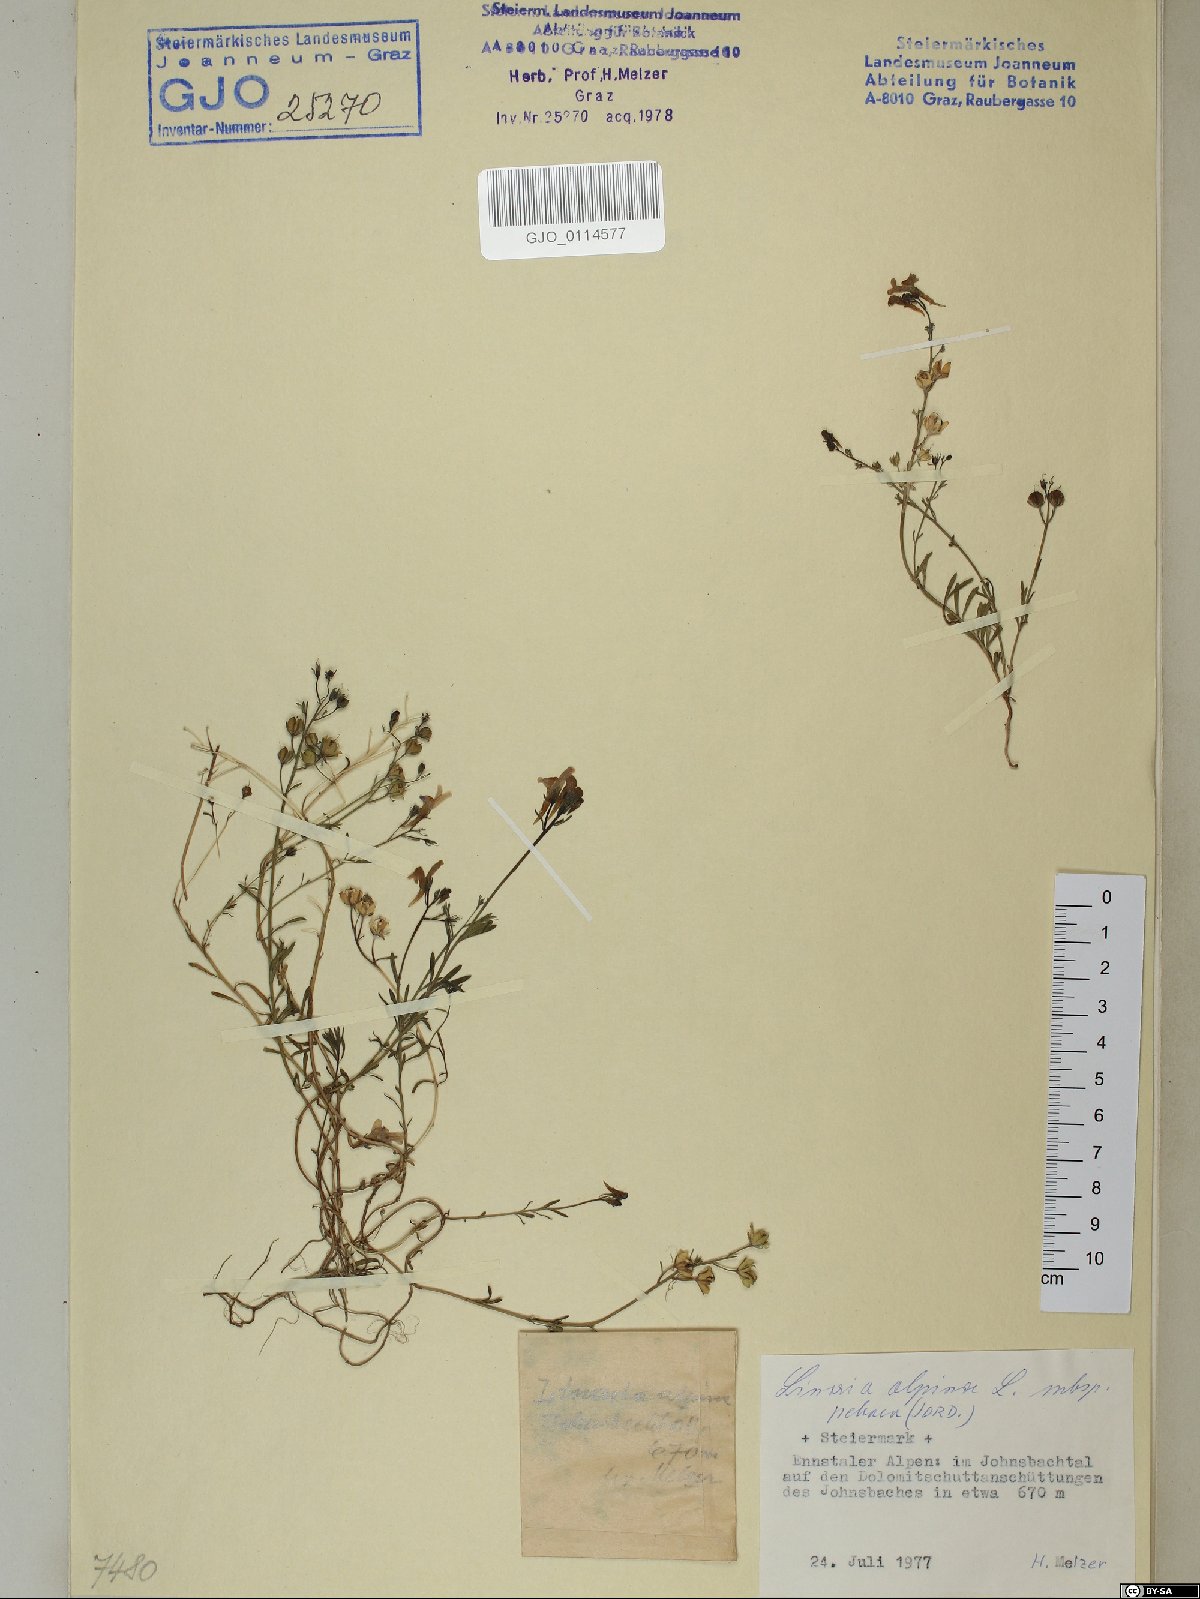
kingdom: Plantae
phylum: Tracheophyta
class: Magnoliopsida
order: Lamiales
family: Plantaginaceae
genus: Linaria
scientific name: Linaria alpina
